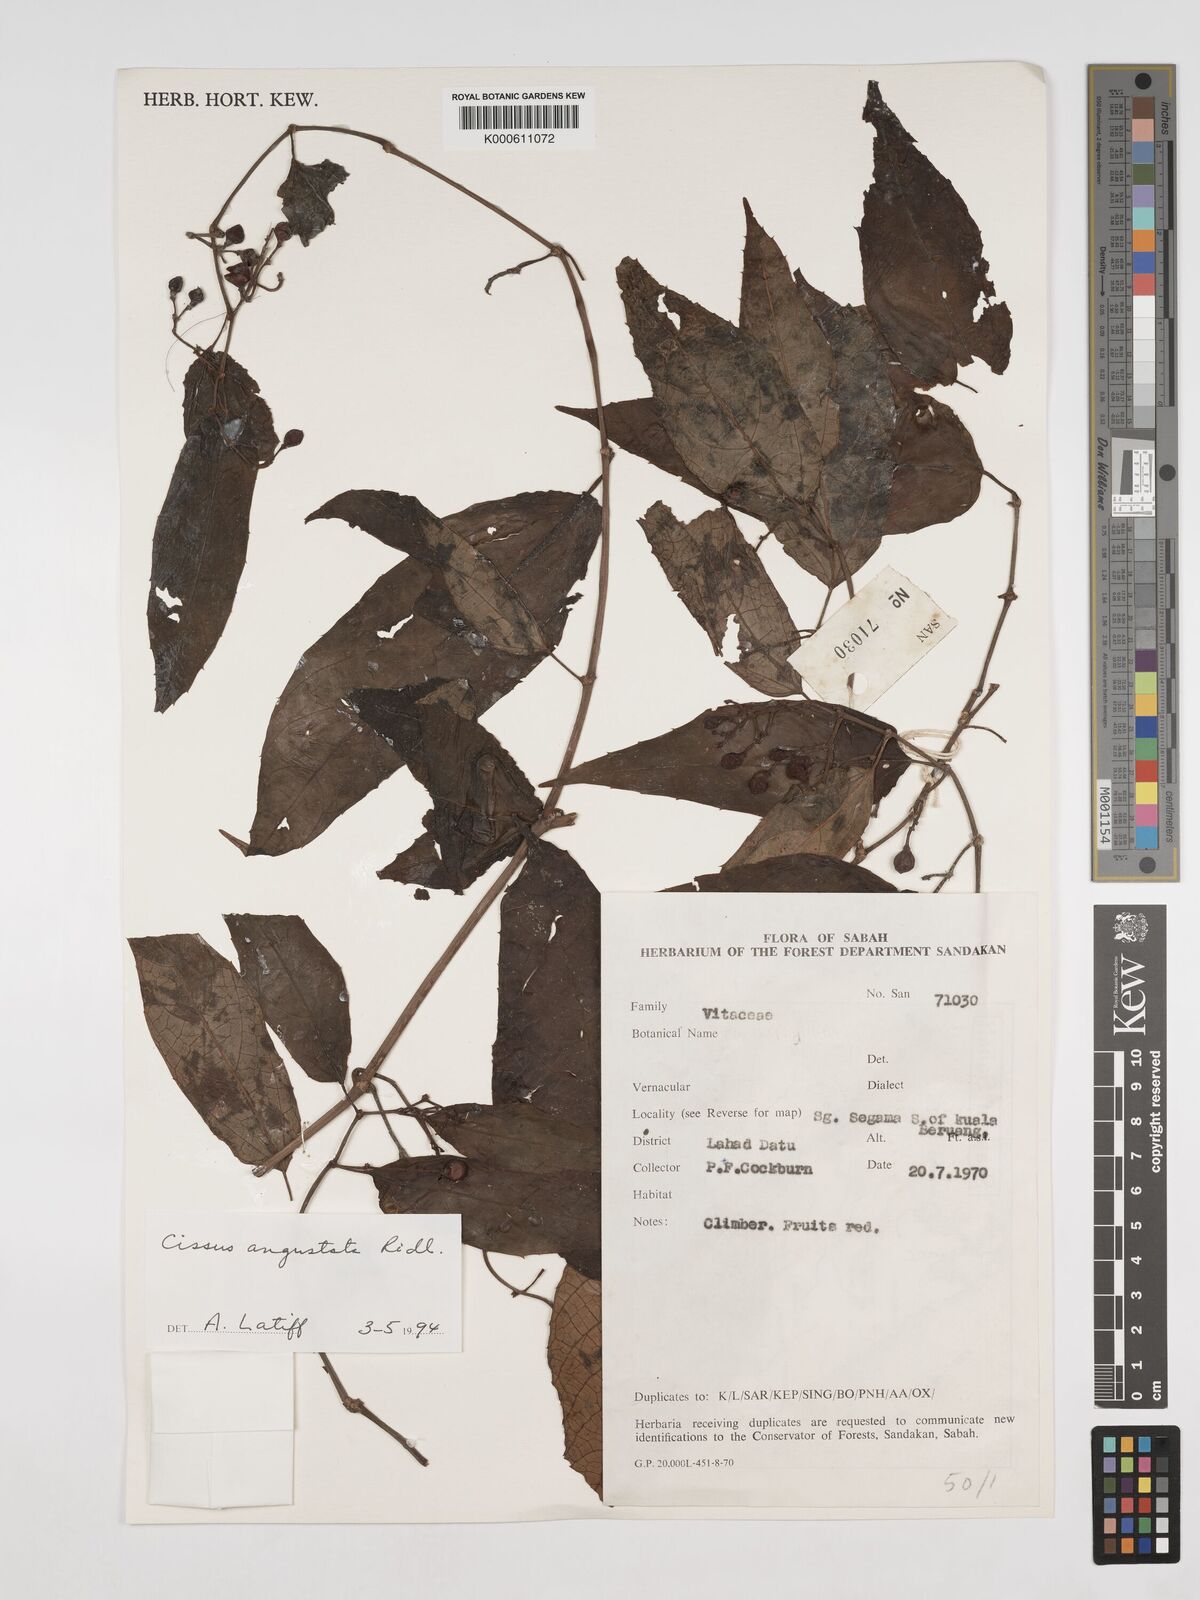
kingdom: Plantae
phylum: Tracheophyta
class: Magnoliopsida
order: Vitales
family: Vitaceae
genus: Cissus
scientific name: Cissus
